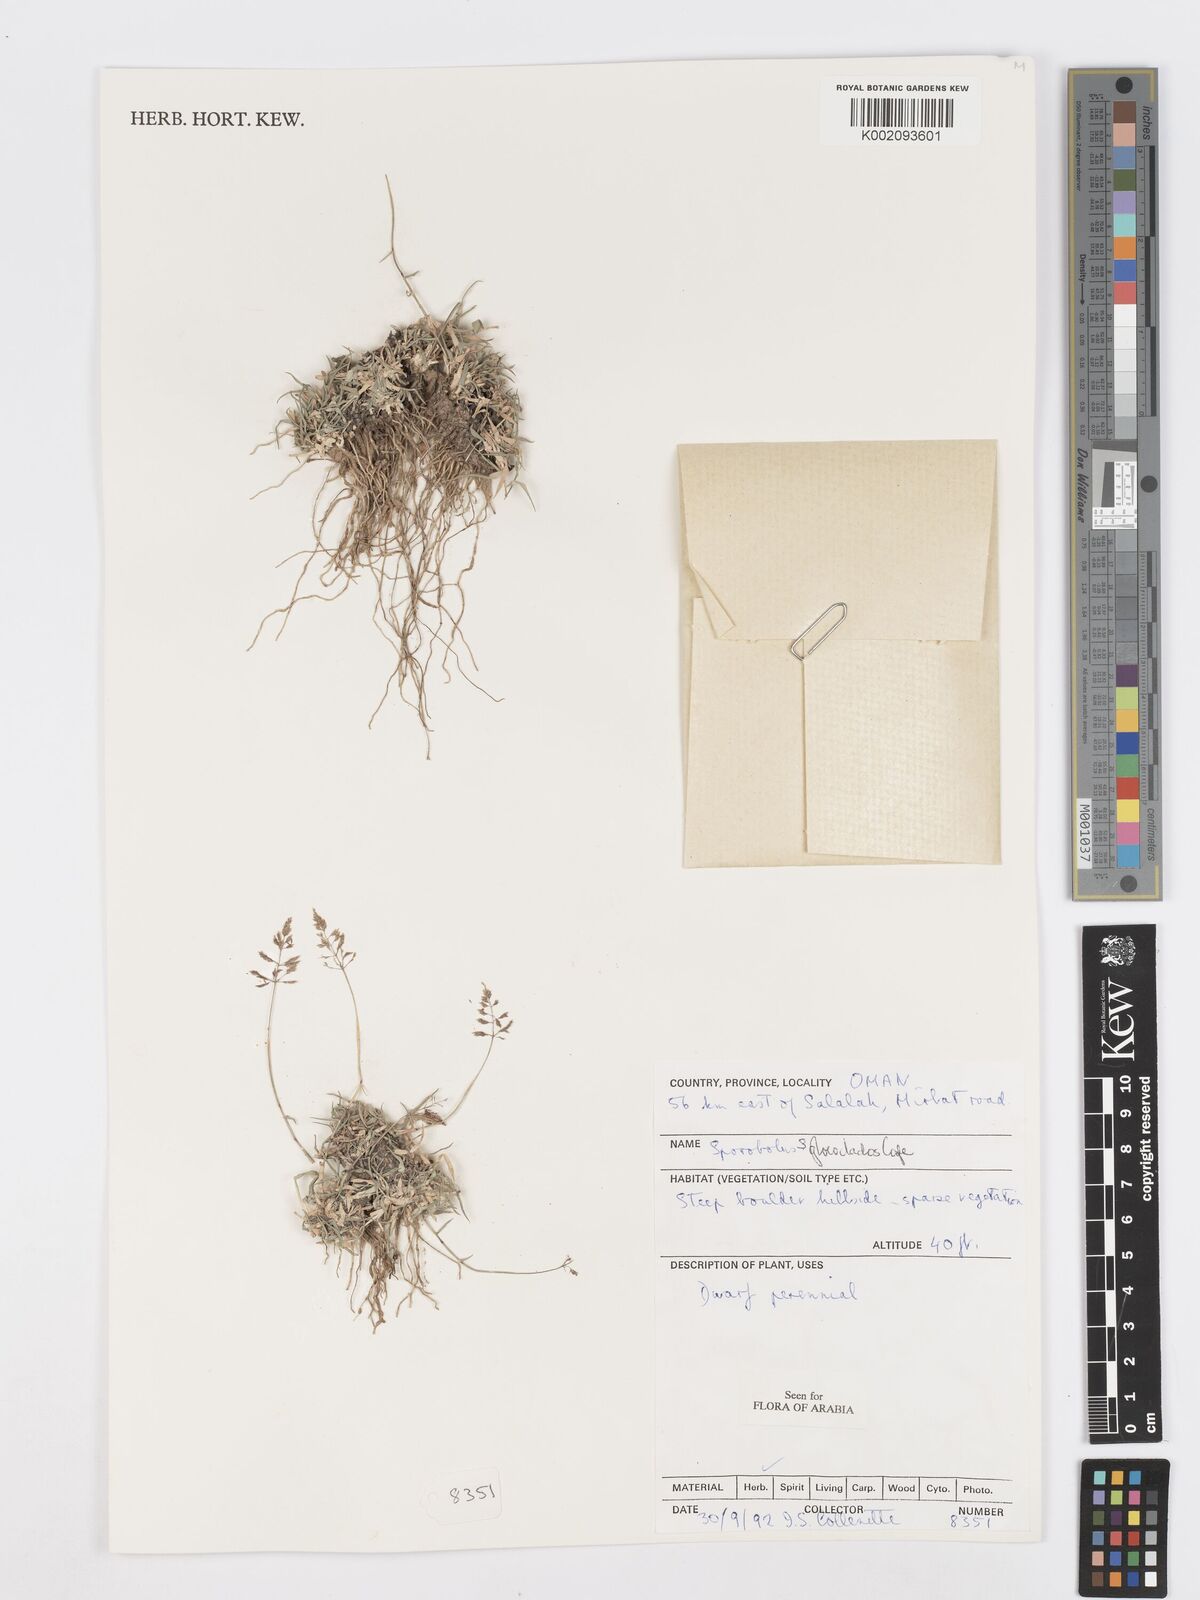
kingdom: Plantae
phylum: Tracheophyta
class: Liliopsida
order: Poales
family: Poaceae
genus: Sporobolus
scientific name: Sporobolus gloeoclados
